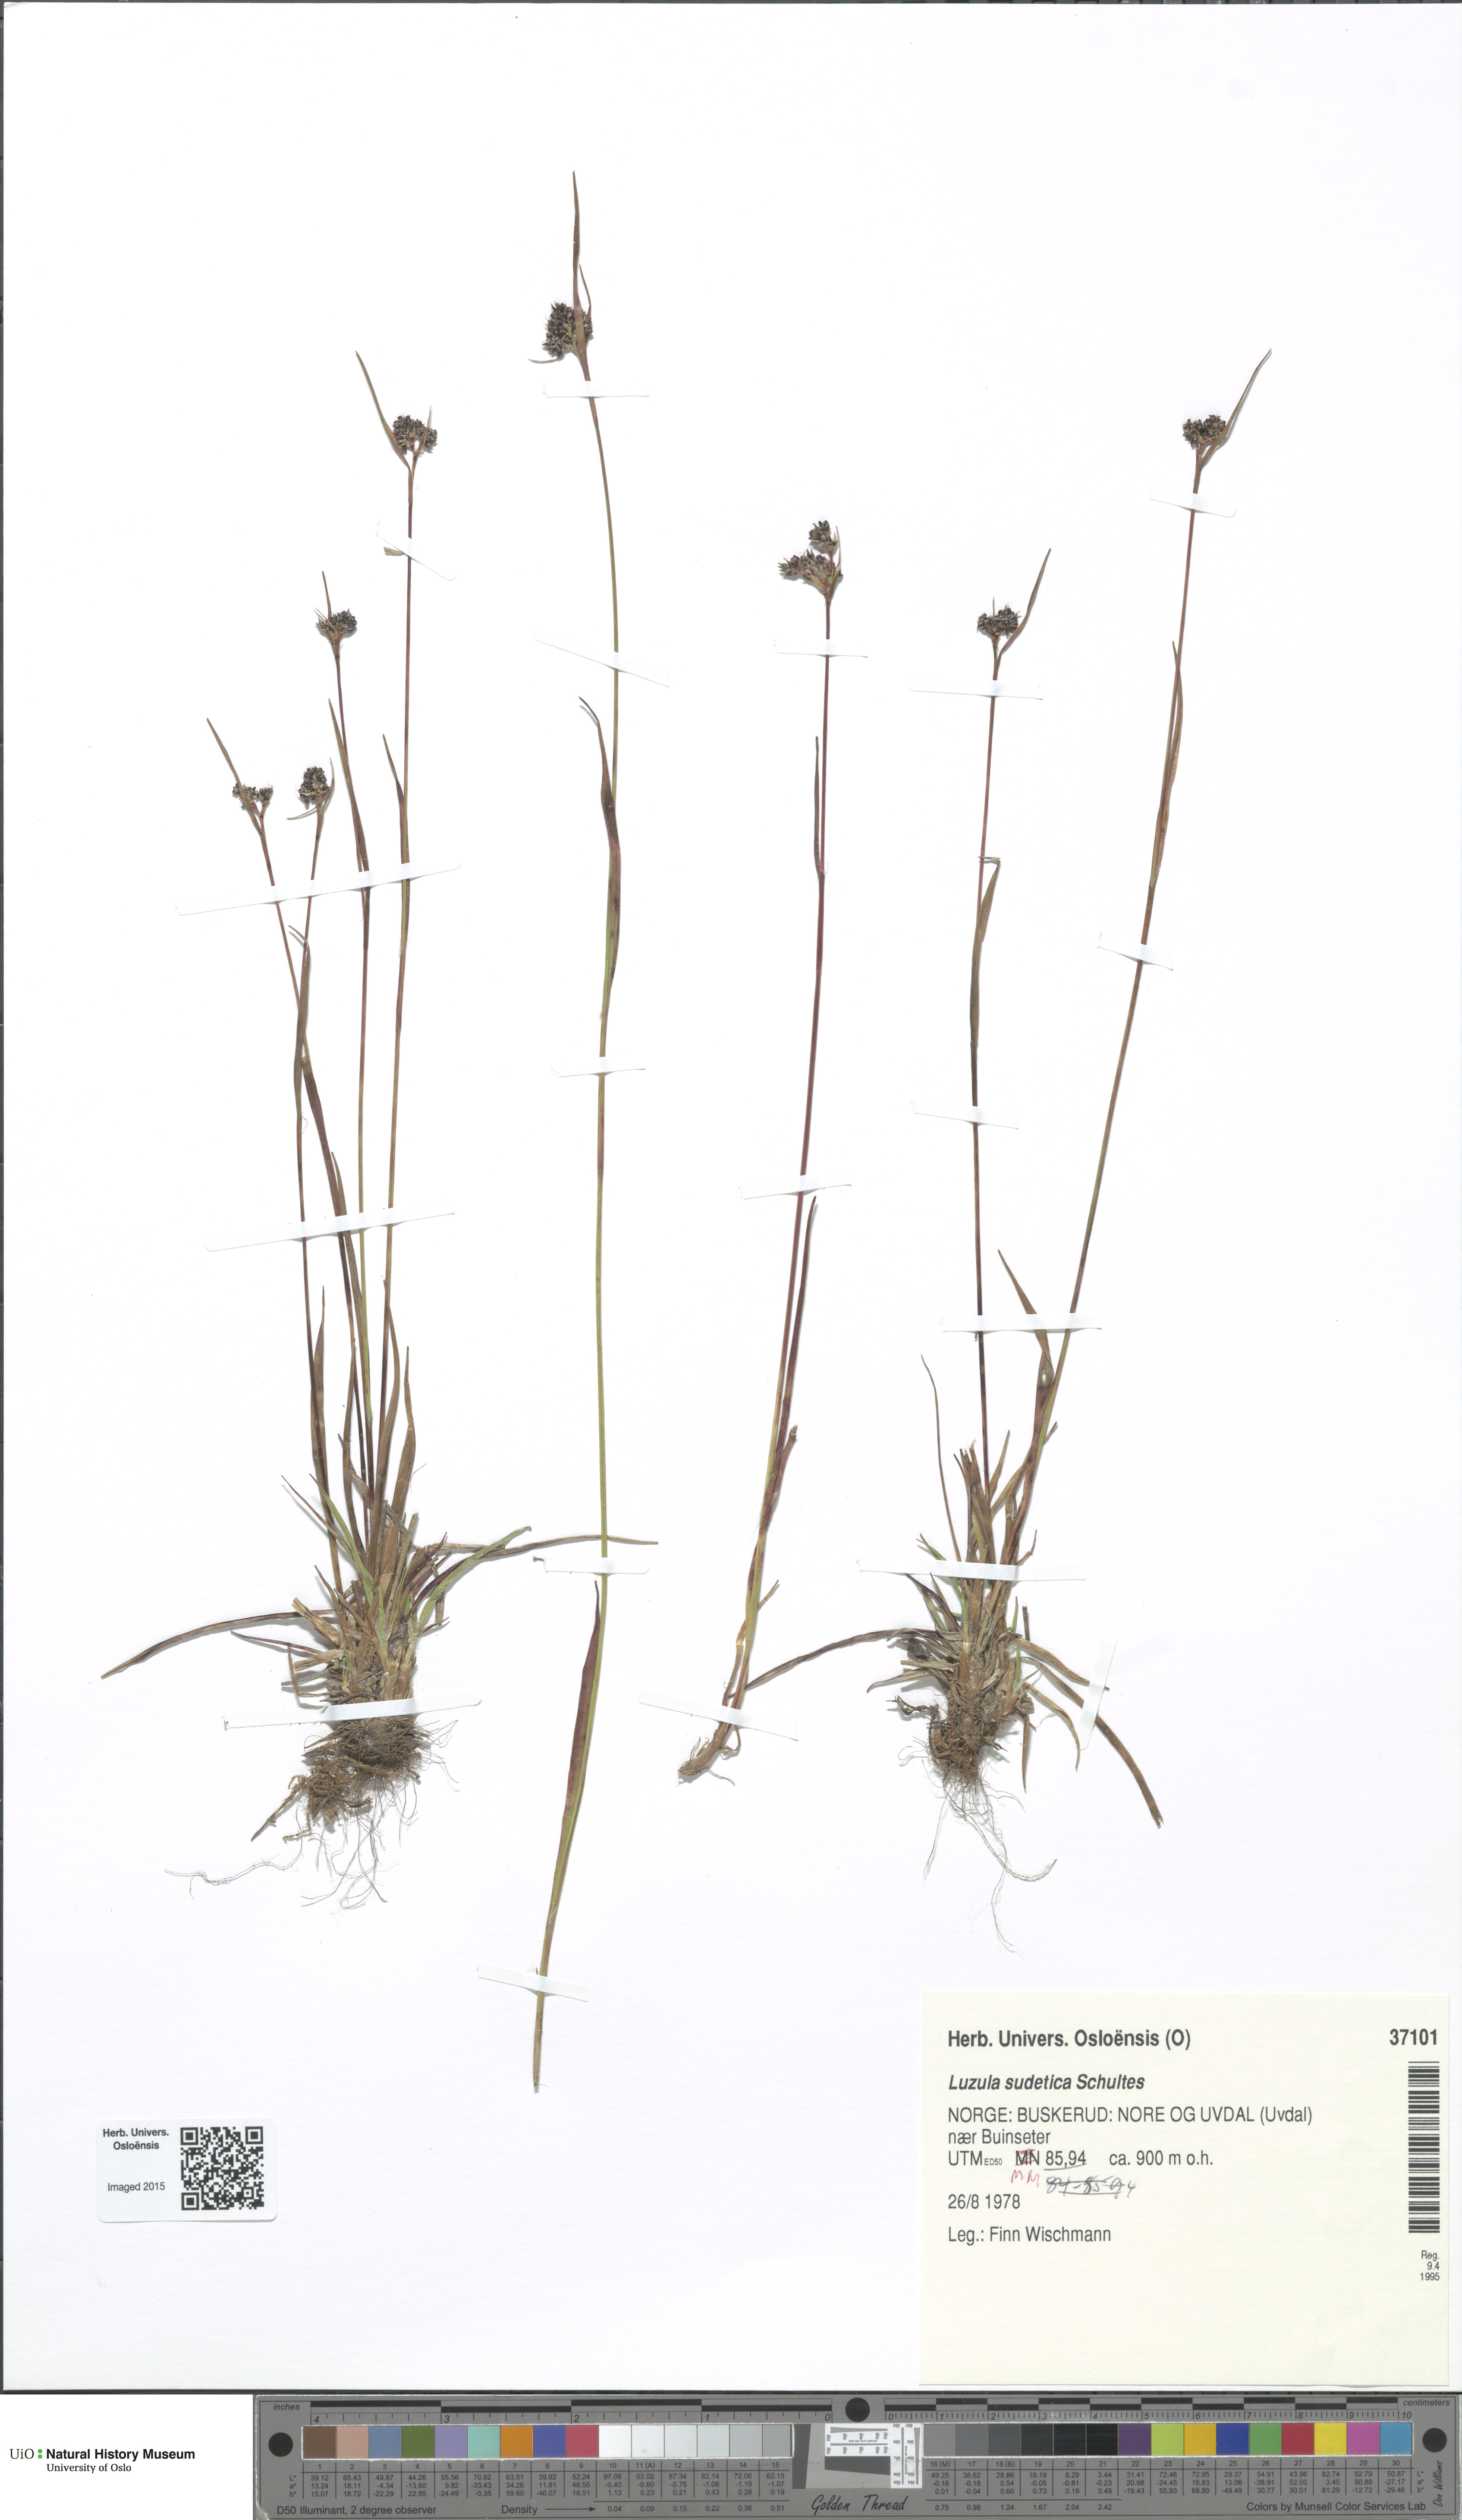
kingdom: Plantae
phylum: Tracheophyta
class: Liliopsida
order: Poales
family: Juncaceae
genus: Luzula
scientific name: Luzula sudetica
